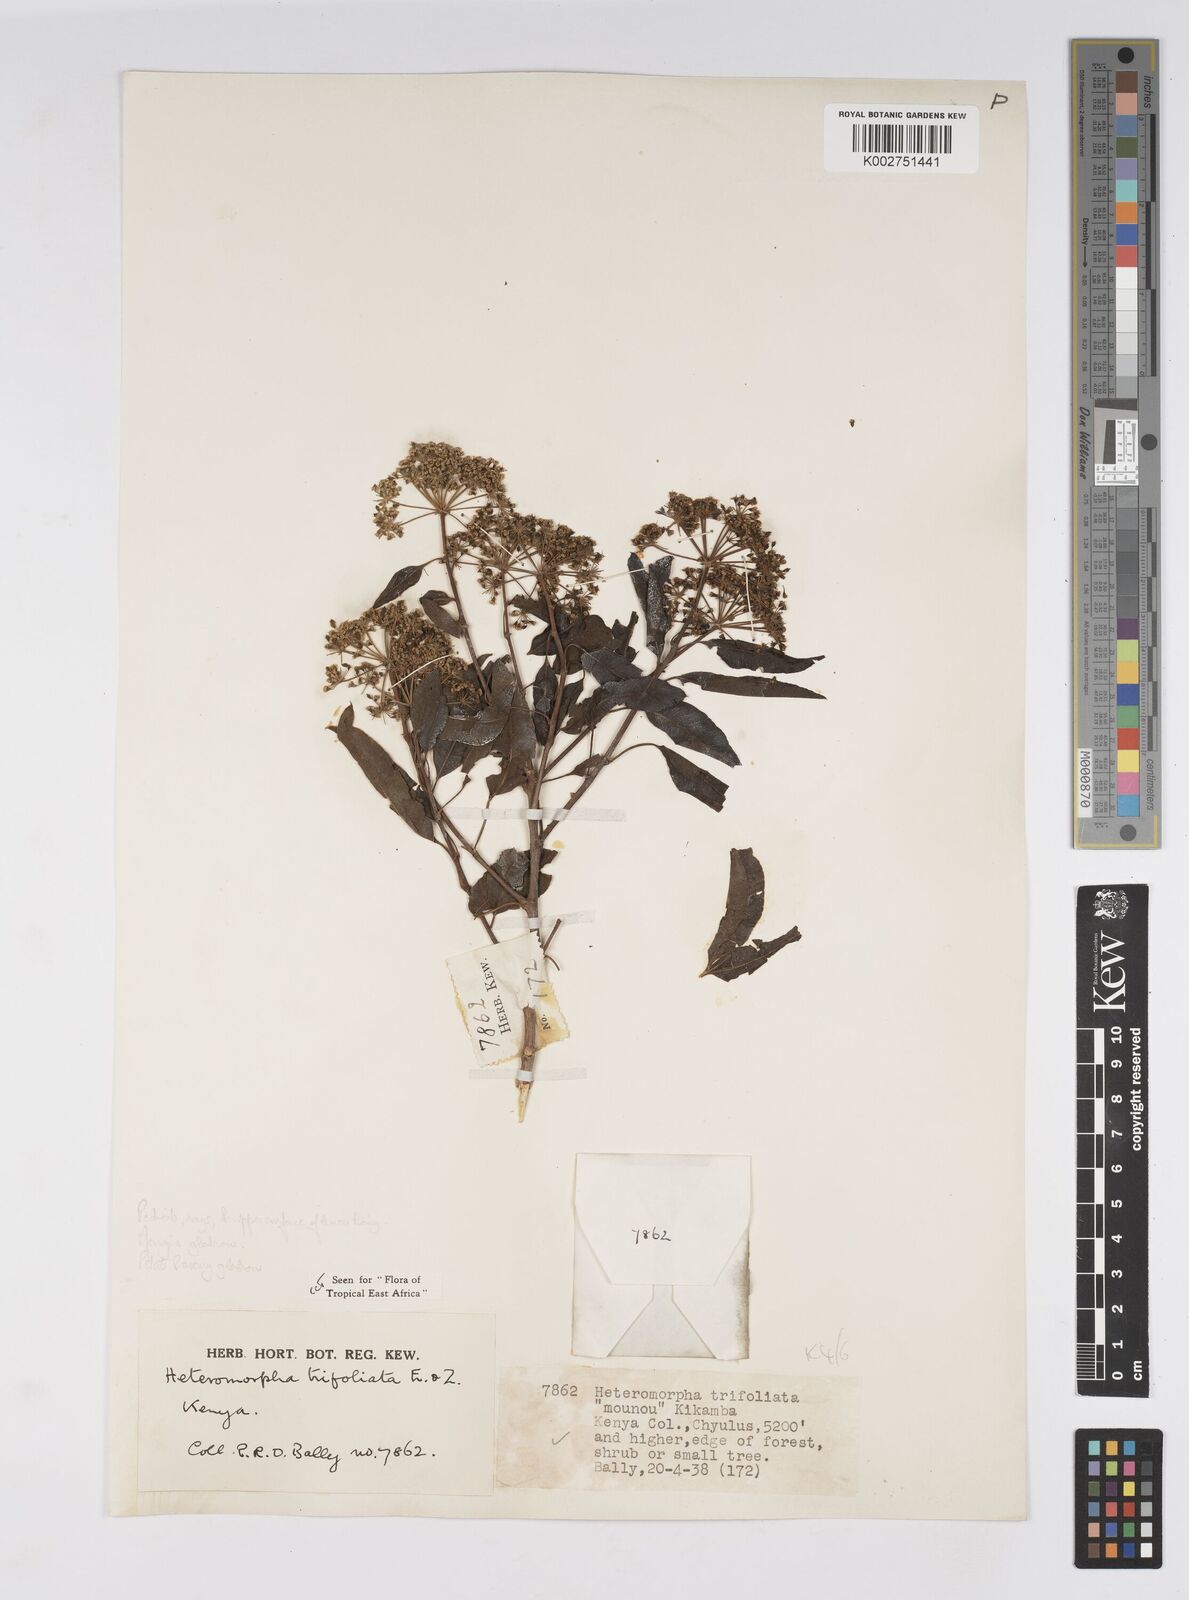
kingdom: Plantae
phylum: Tracheophyta
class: Magnoliopsida
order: Apiales
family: Apiaceae
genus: Heteromorpha
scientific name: Heteromorpha arborescens
